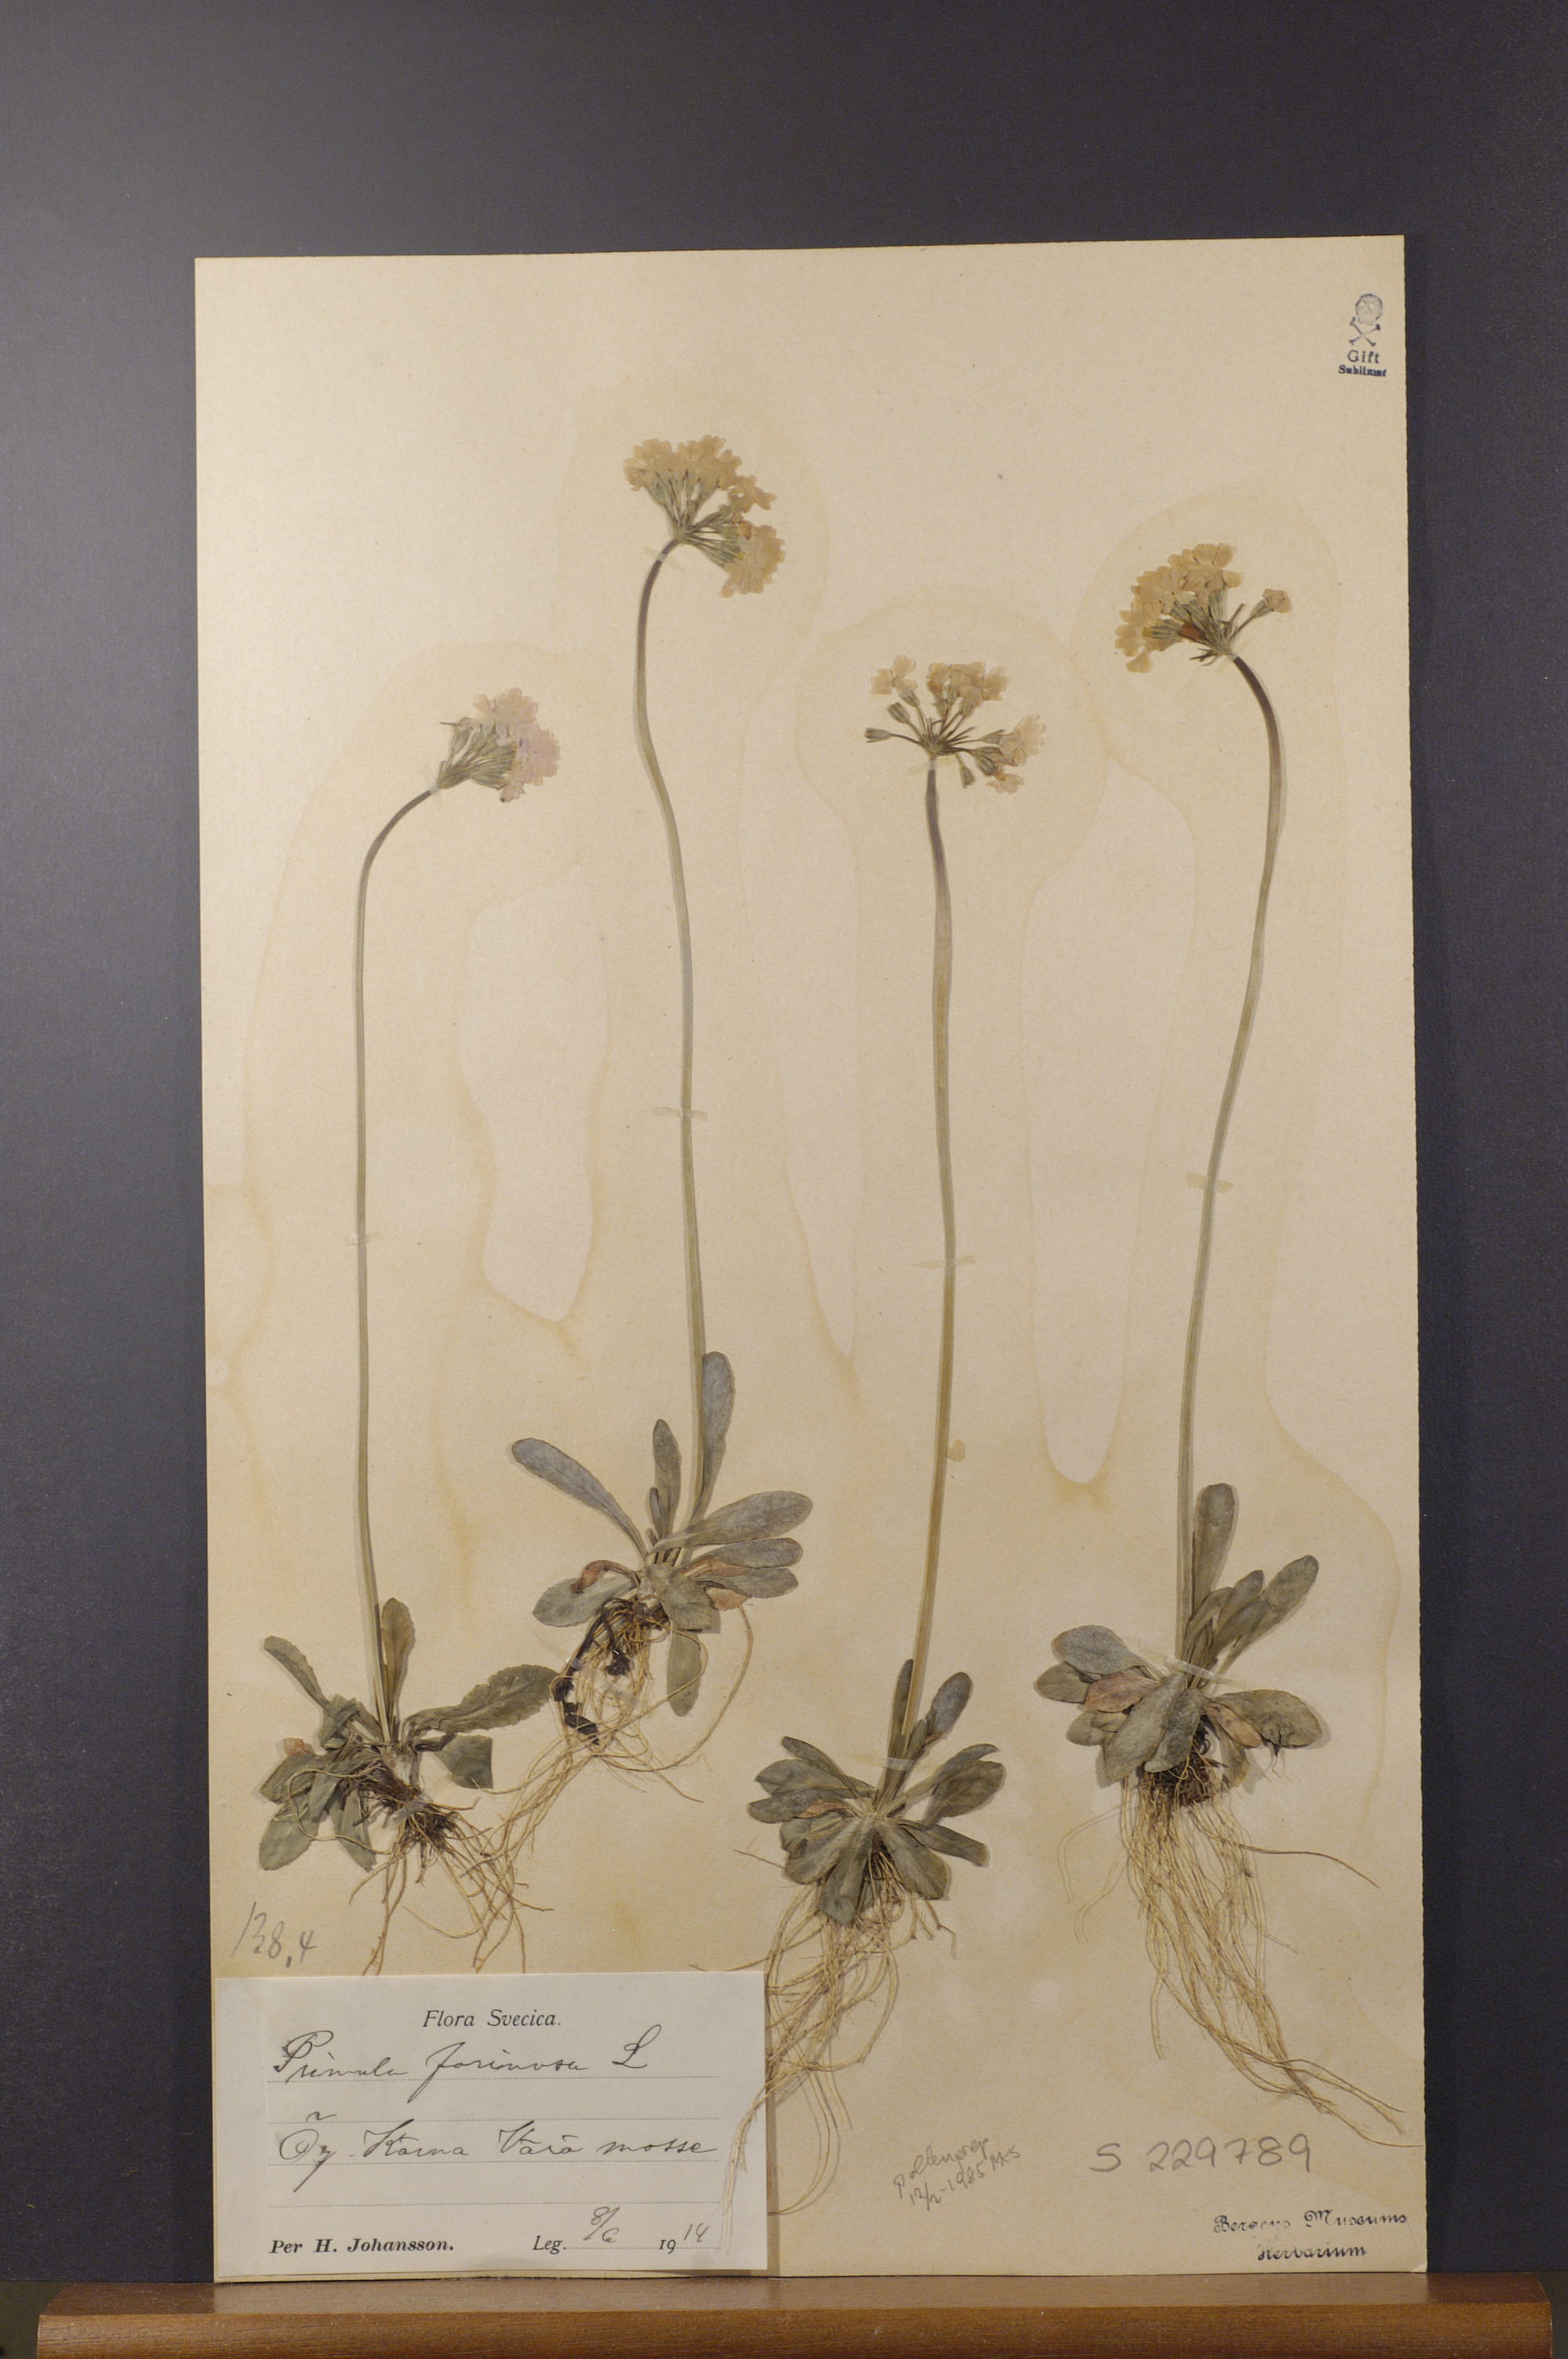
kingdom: Plantae
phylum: Tracheophyta
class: Magnoliopsida
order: Ericales
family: Primulaceae
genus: Primula
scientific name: Primula farinosa
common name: Bird's-eye primrose
